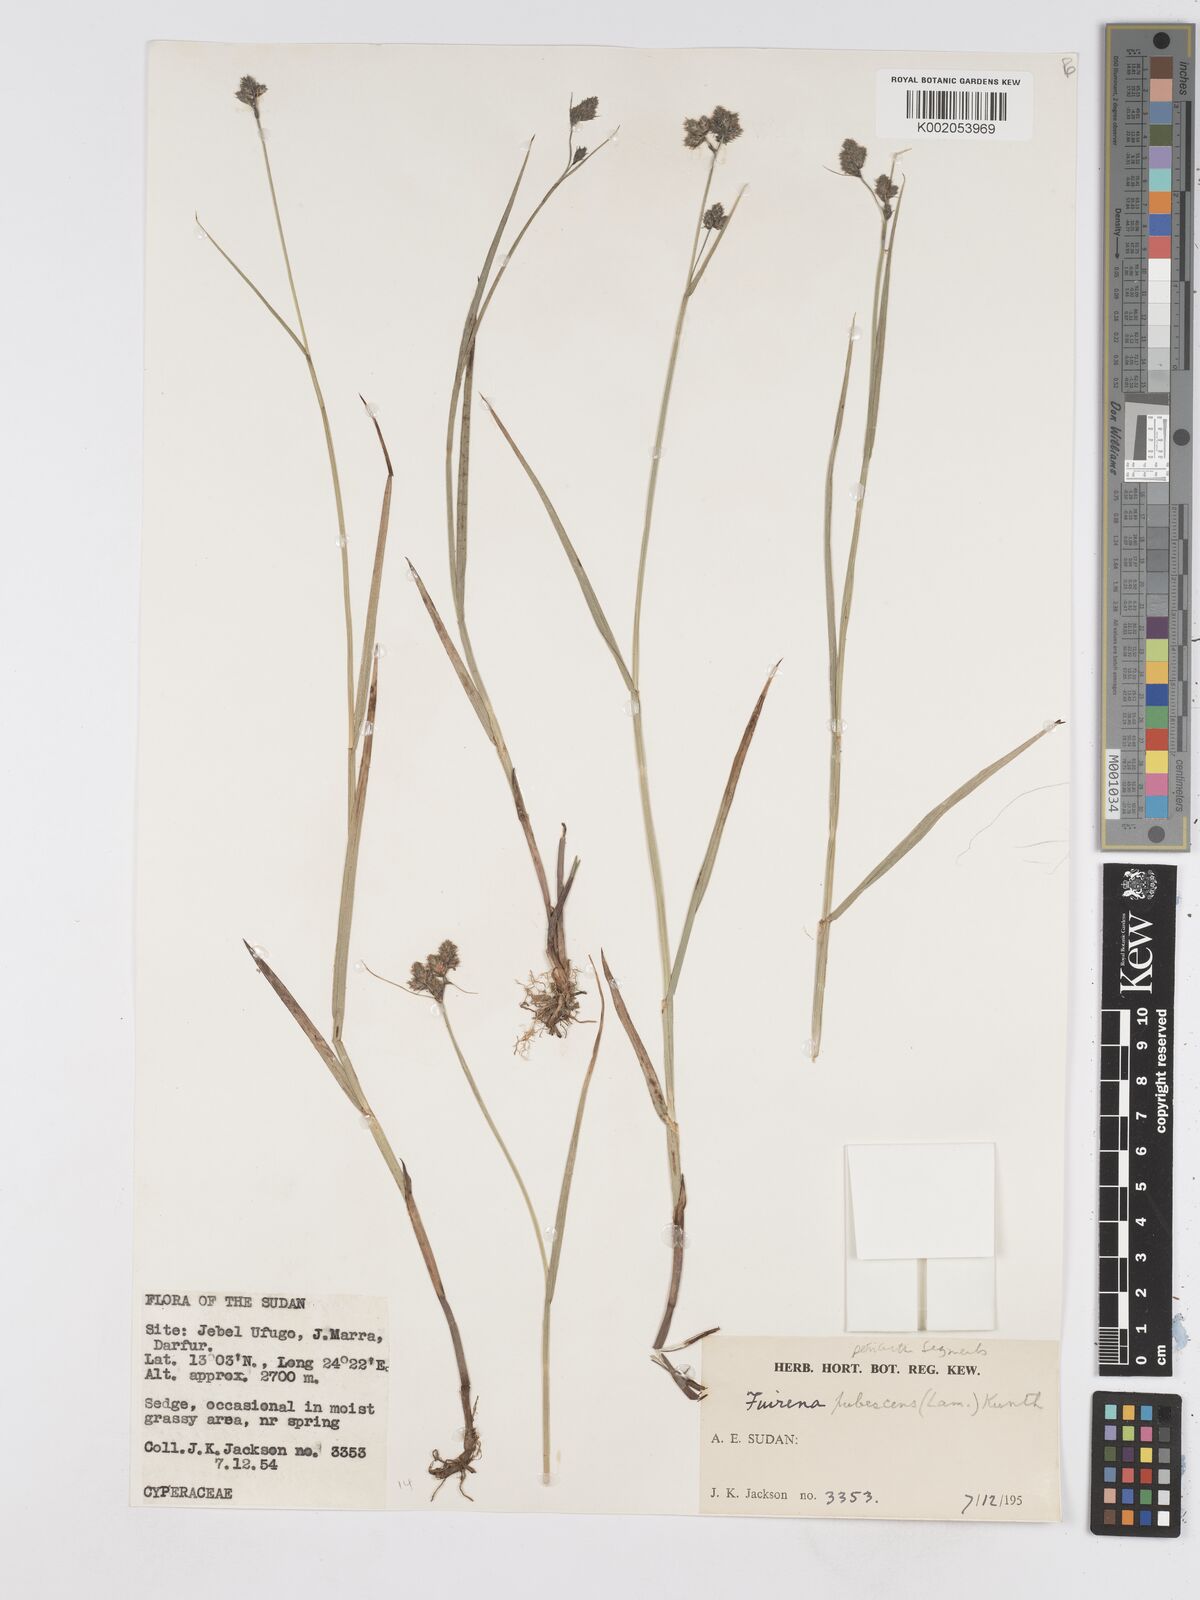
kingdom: Plantae
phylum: Tracheophyta
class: Liliopsida
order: Poales
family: Cyperaceae
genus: Fuirena
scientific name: Fuirena pubescens
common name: Hairy sedge
